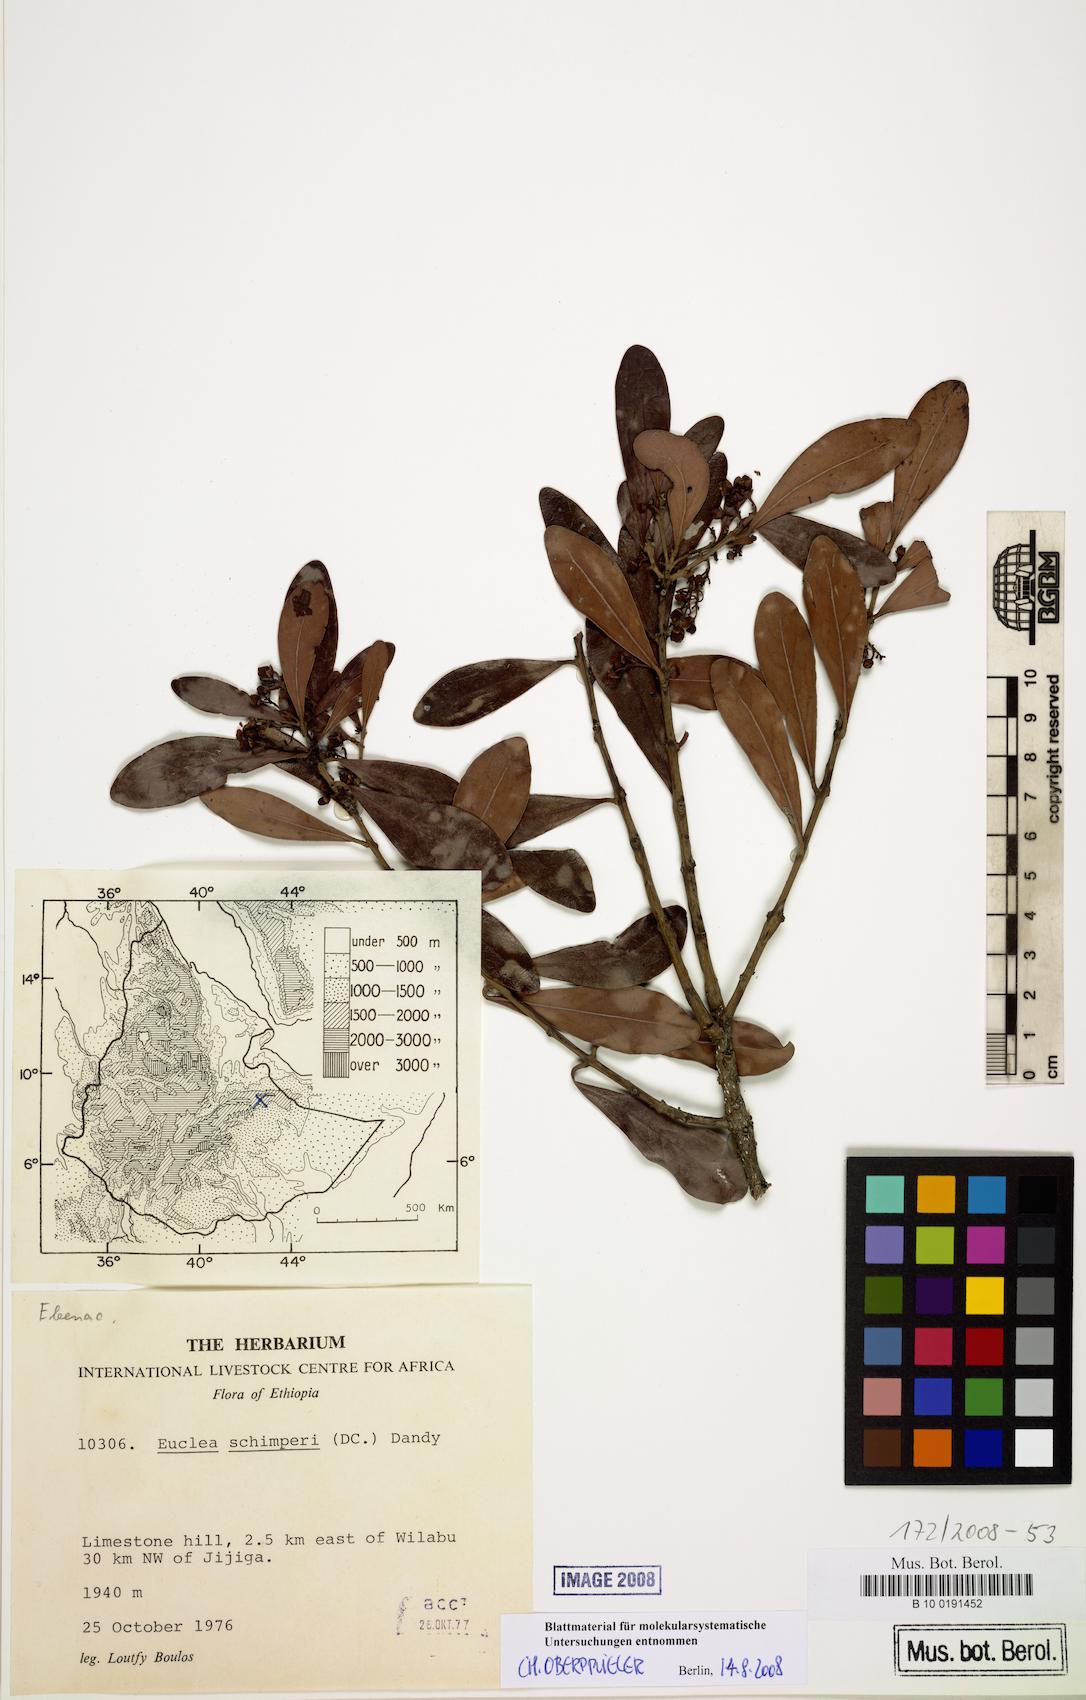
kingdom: Plantae
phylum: Tracheophyta
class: Magnoliopsida
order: Ericales
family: Ebenaceae
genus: Euclea
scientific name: Euclea racemosa
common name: Dune guarri
